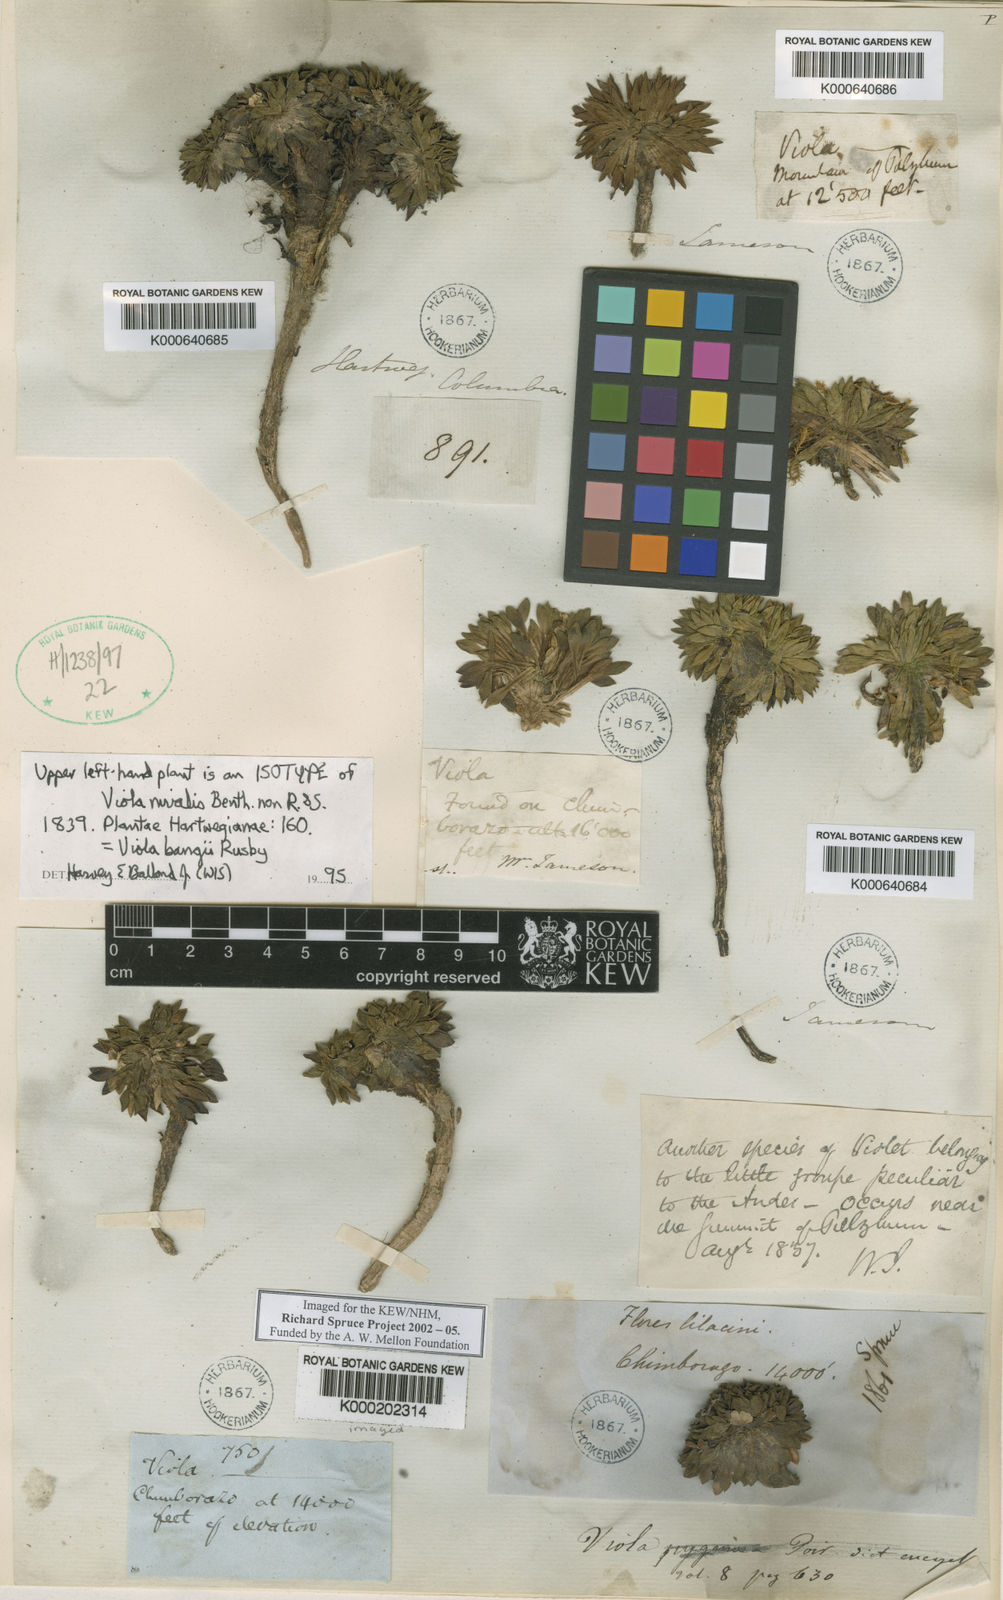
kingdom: Plantae
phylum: Tracheophyta
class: Magnoliopsida
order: Malpighiales
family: Violaceae
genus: Viola
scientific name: Viola bangii
